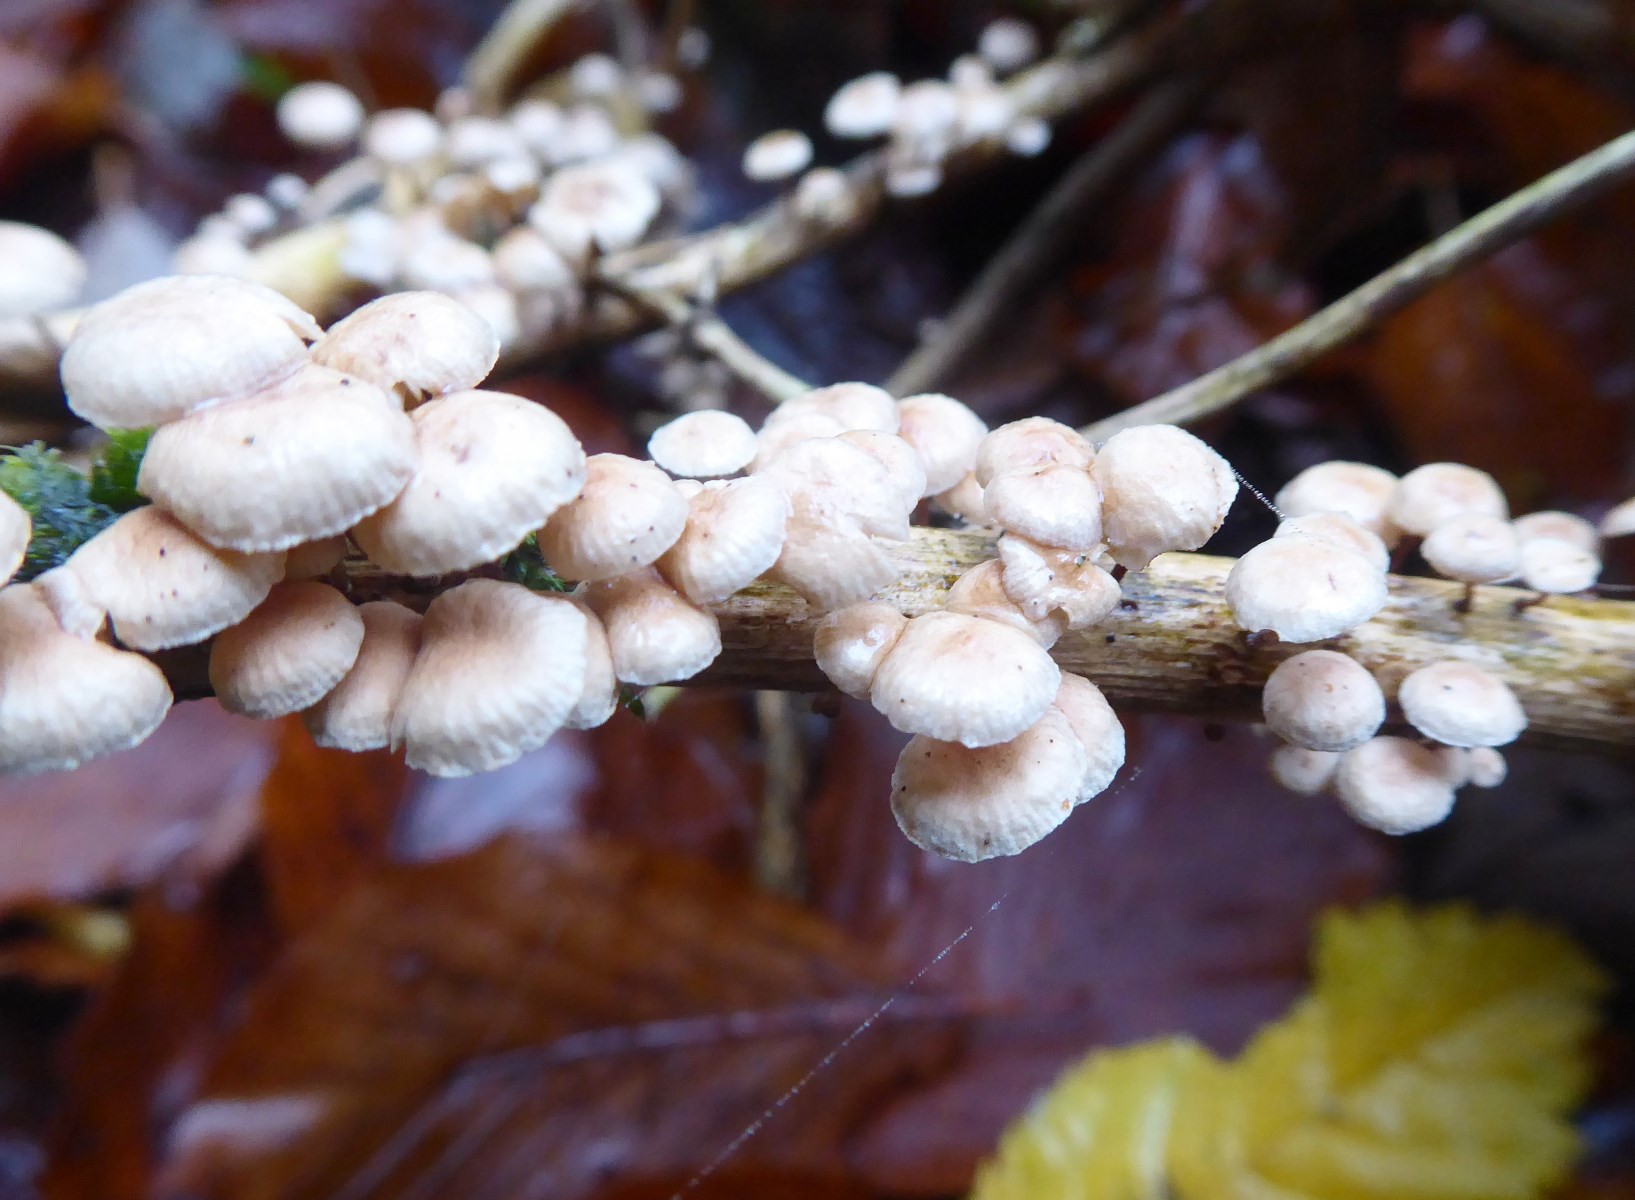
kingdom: Fungi
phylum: Basidiomycota
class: Agaricomycetes
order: Agaricales
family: Omphalotaceae
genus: Collybiopsis
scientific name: Collybiopsis ramealis
